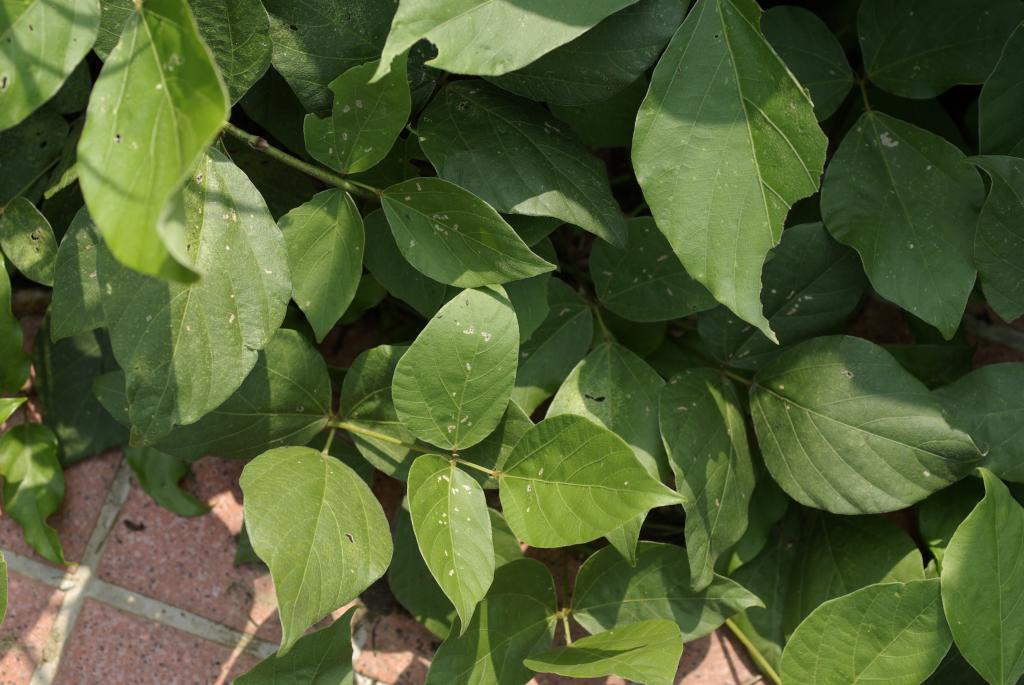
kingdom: Plantae
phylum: Tracheophyta
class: Magnoliopsida
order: Fabales
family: Fabaceae
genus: Pueraria
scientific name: Pueraria montana
